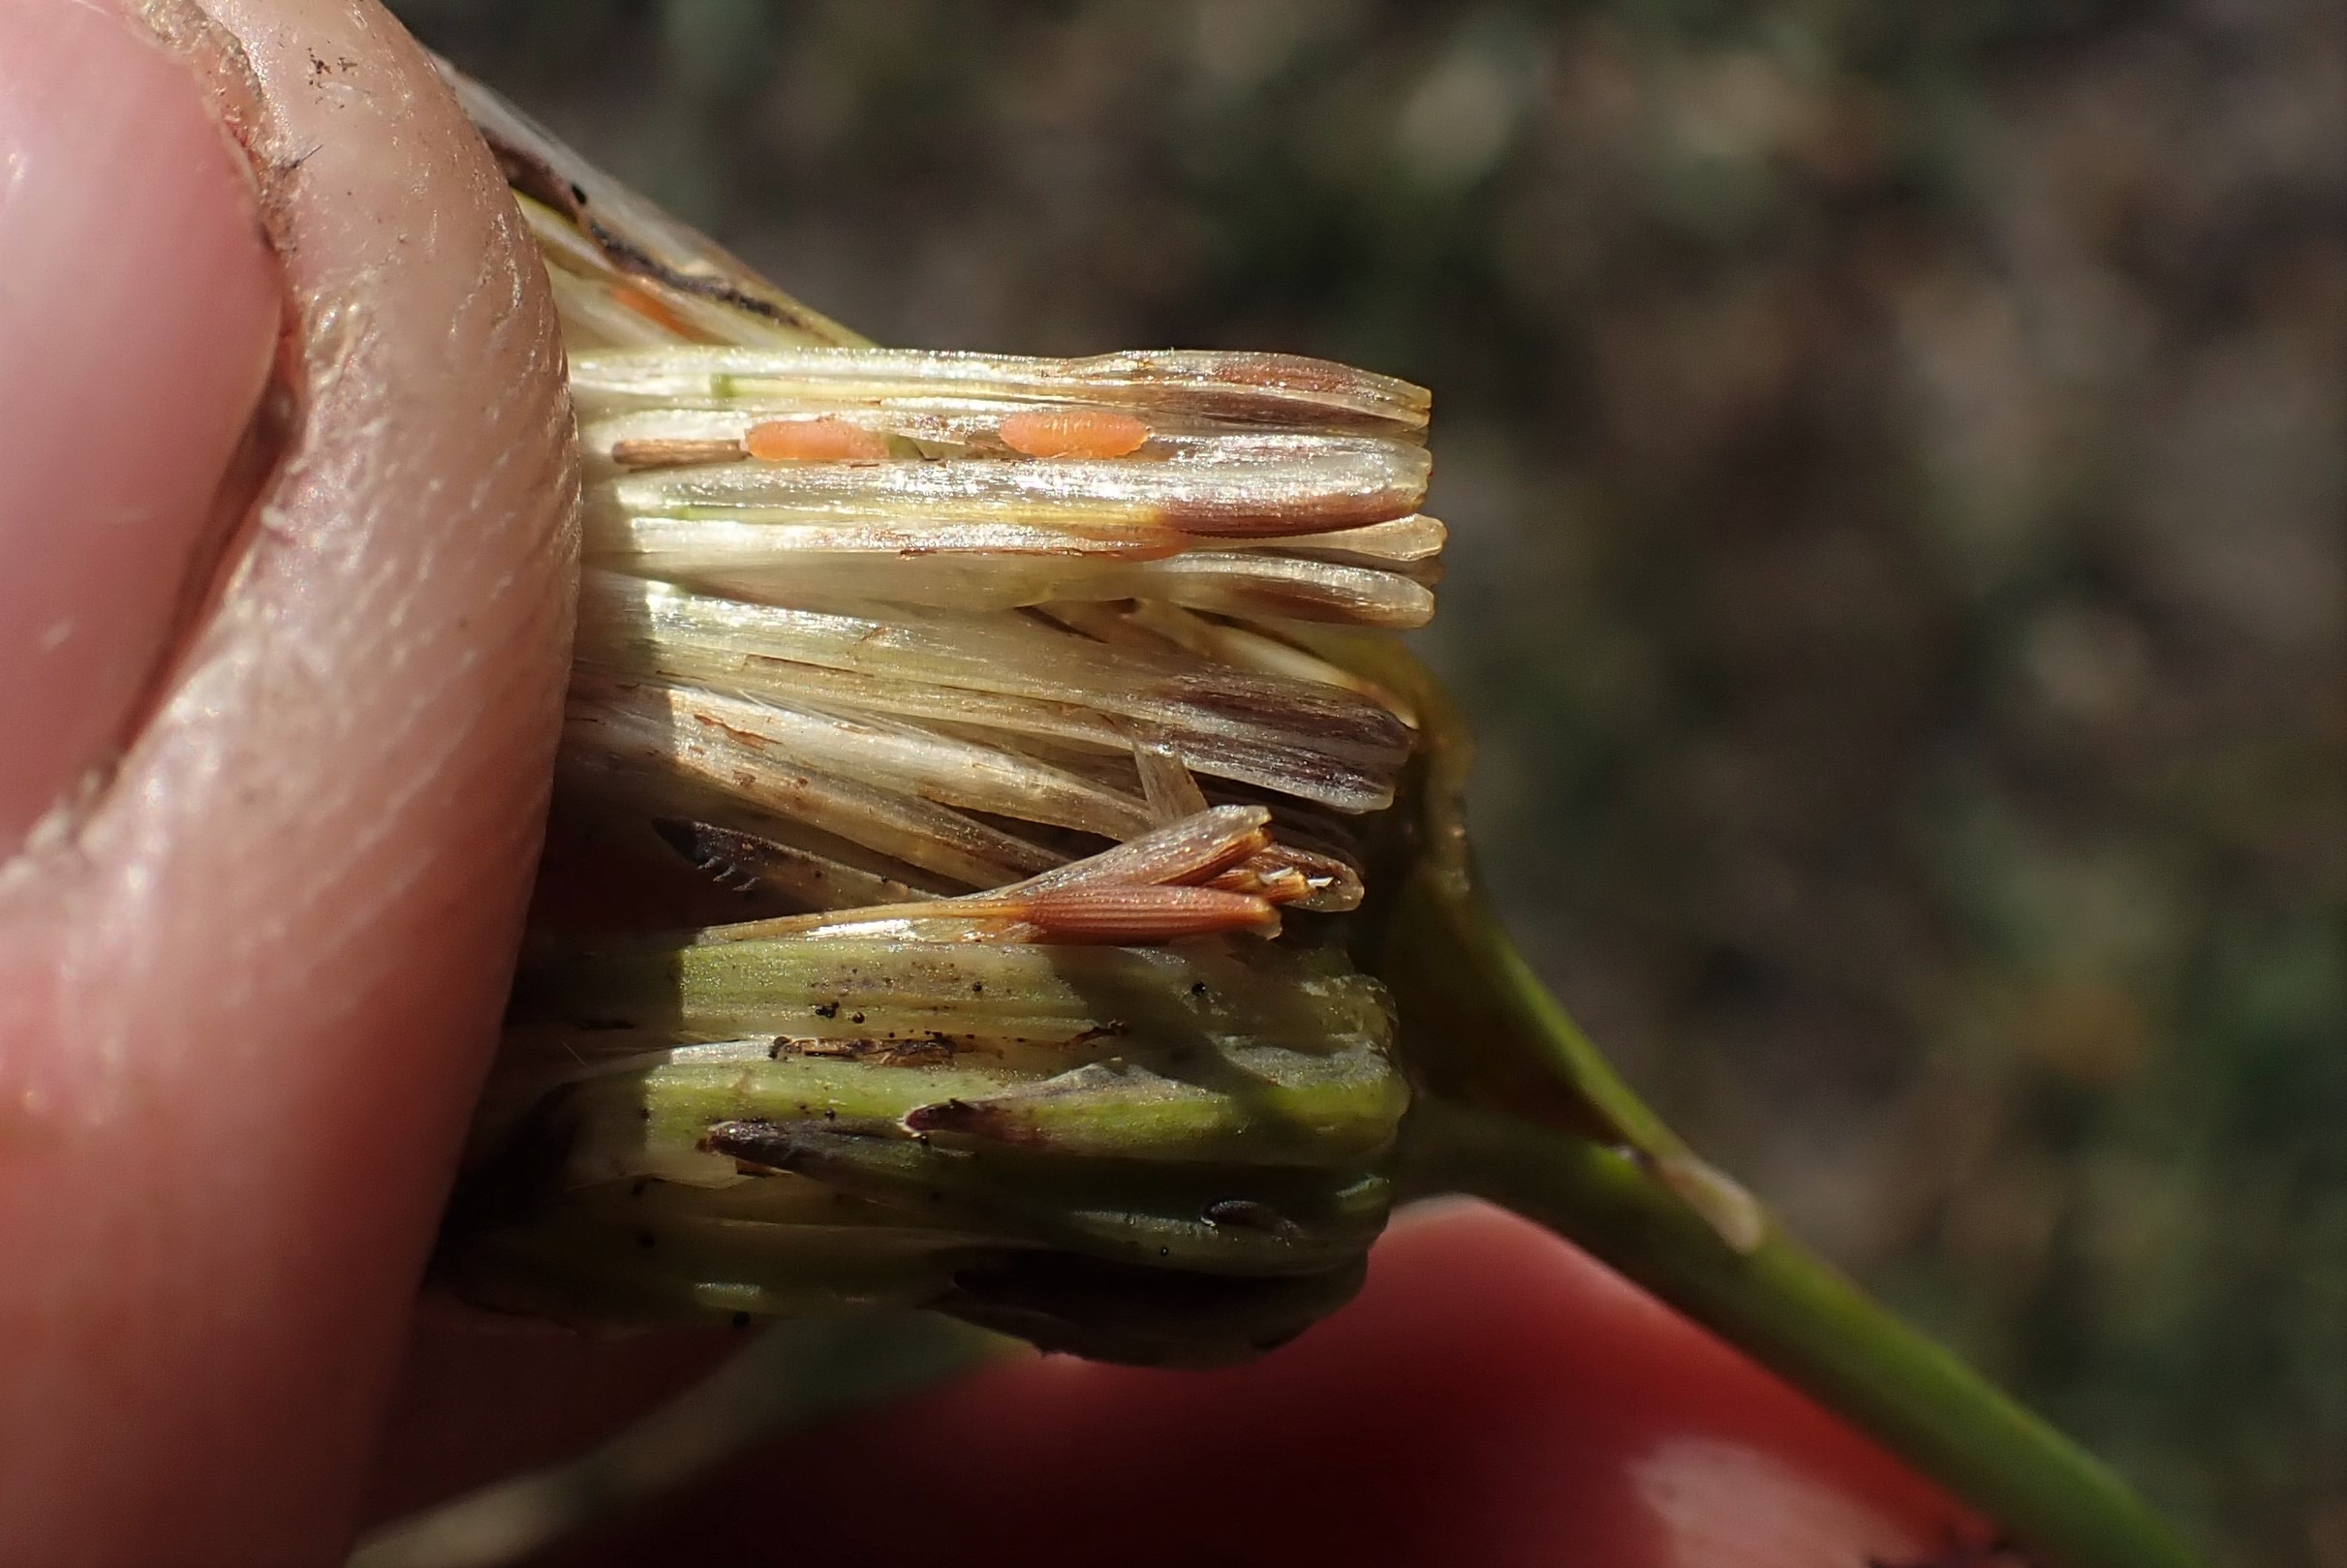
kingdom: Animalia
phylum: Arthropoda
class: Insecta
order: Diptera
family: Cecidomyiidae
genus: Jaapiella
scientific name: Jaapiella hypochoeridis
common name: Orange kongepengalmyg
